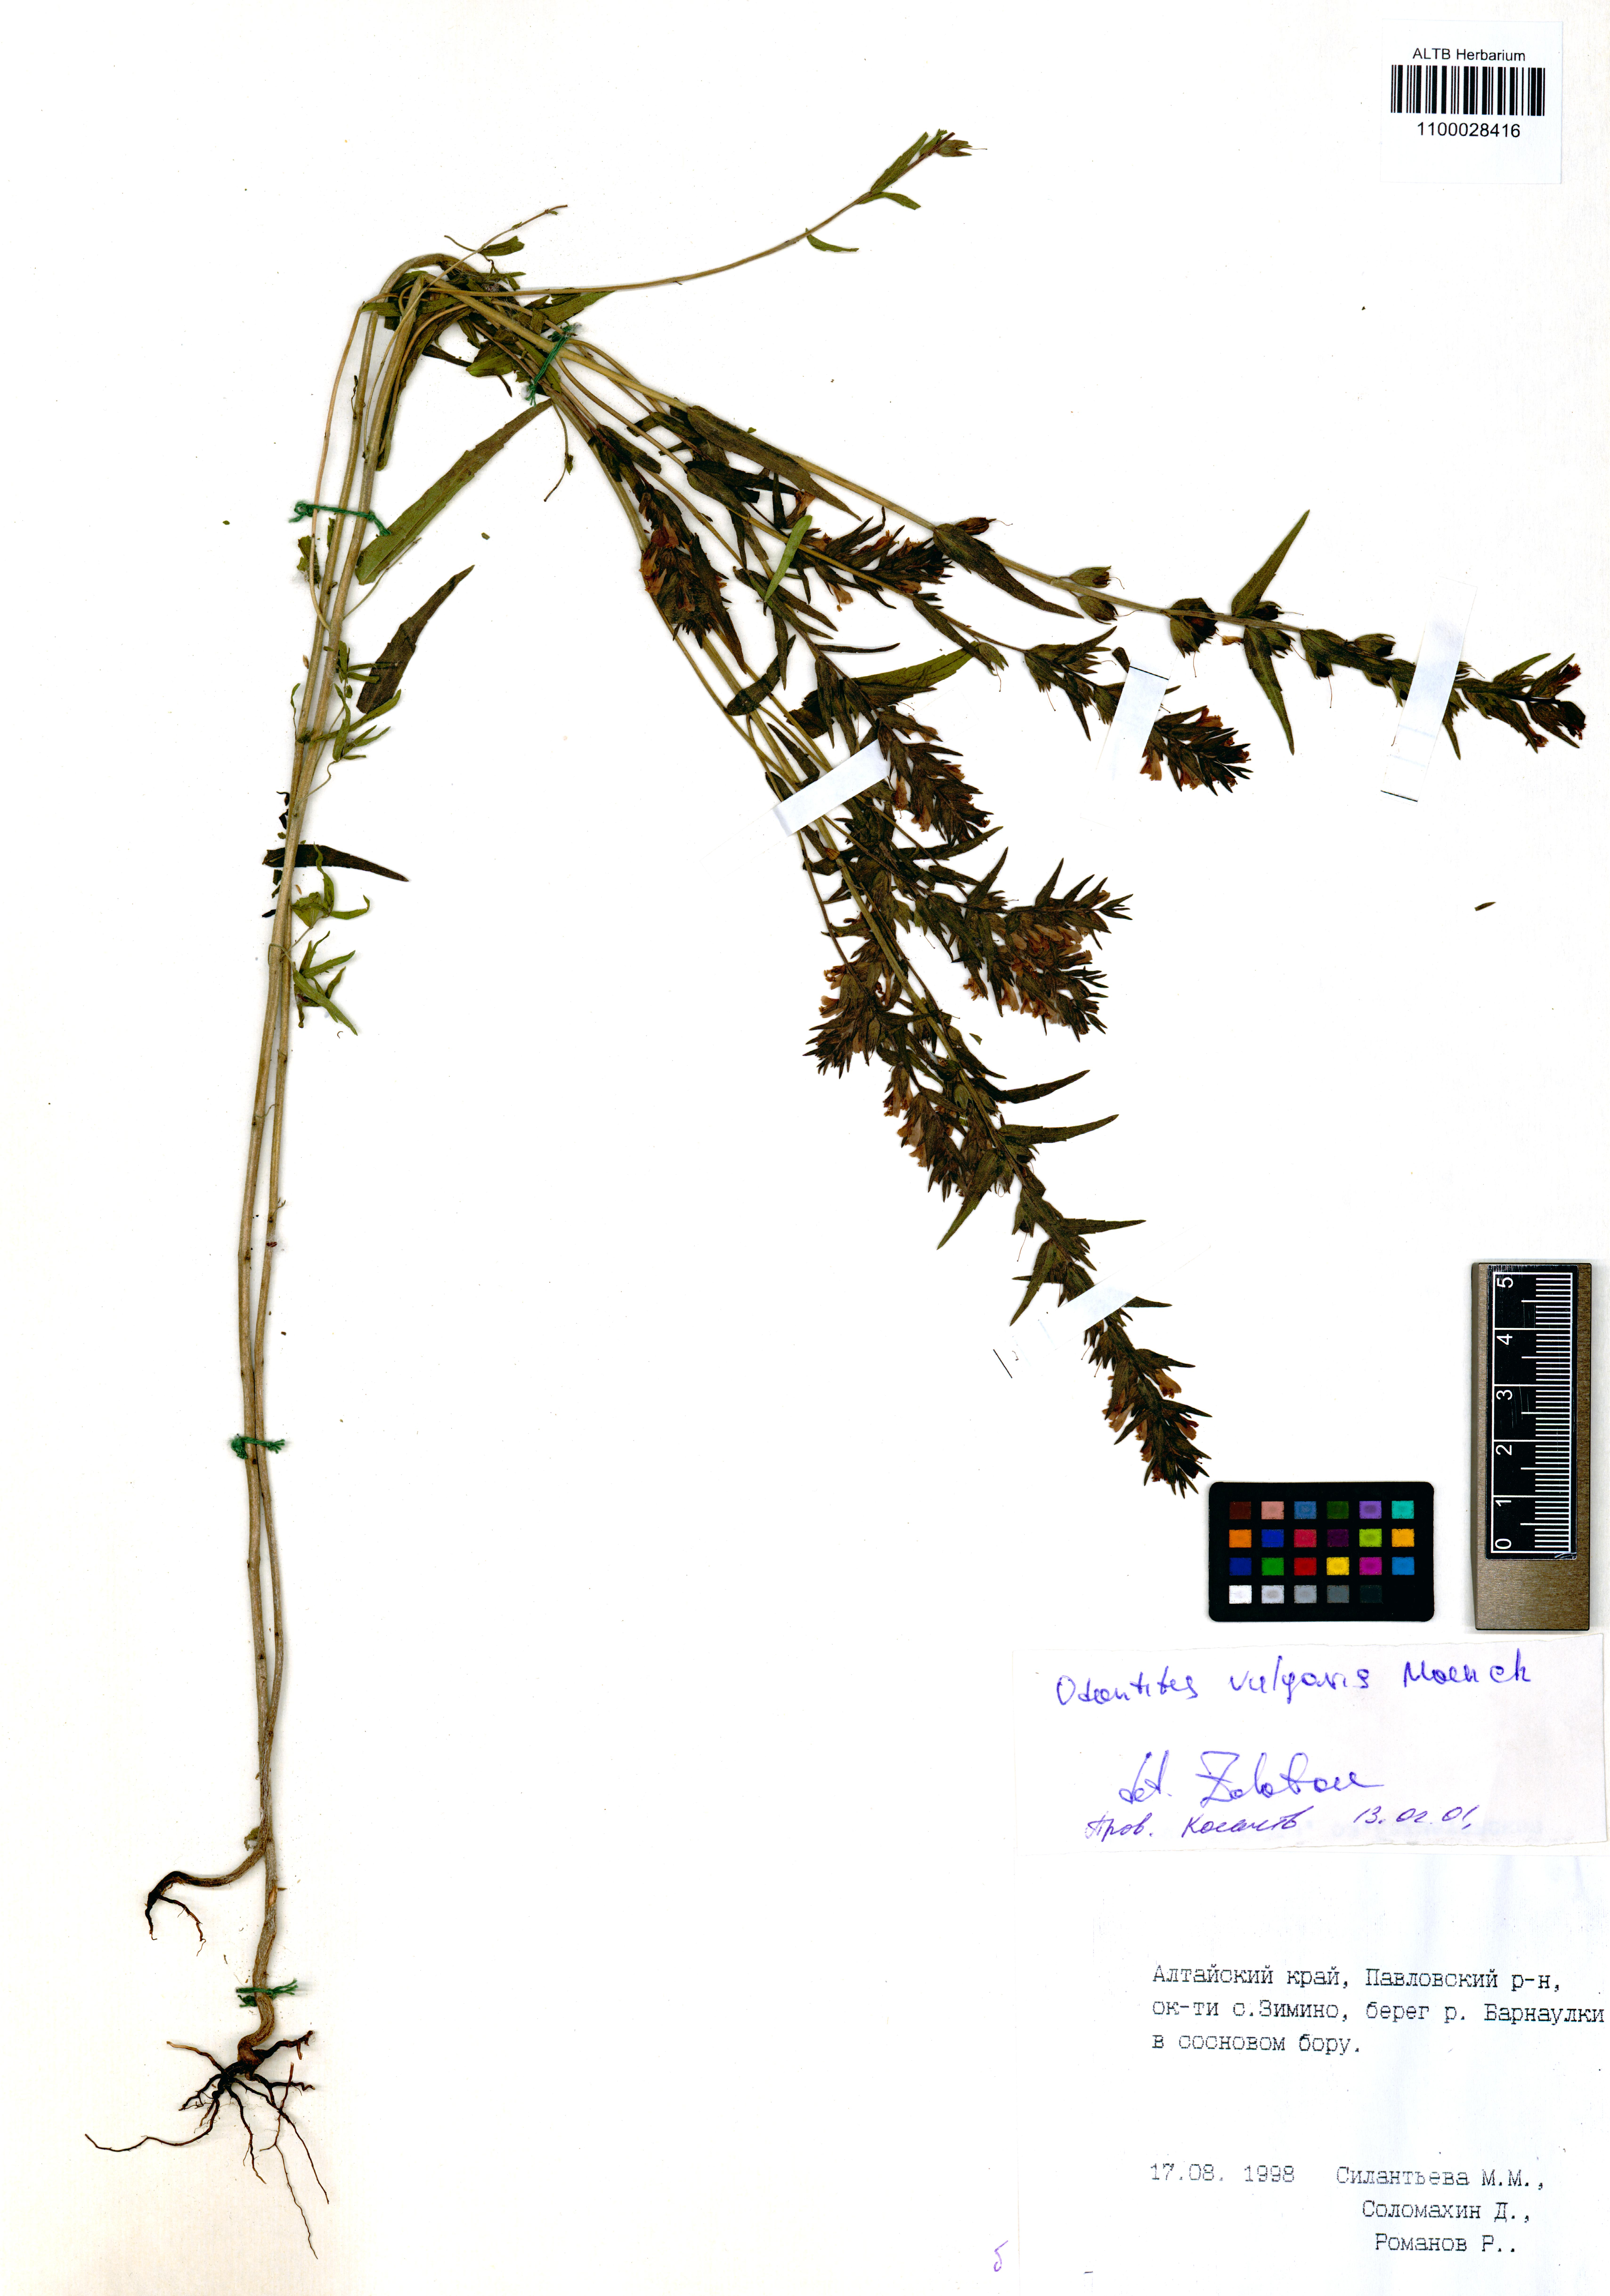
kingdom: Plantae
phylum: Tracheophyta
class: Magnoliopsida
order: Lamiales
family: Orobanchaceae
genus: Odontites
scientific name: Odontites vulgaris
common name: Broomrape
